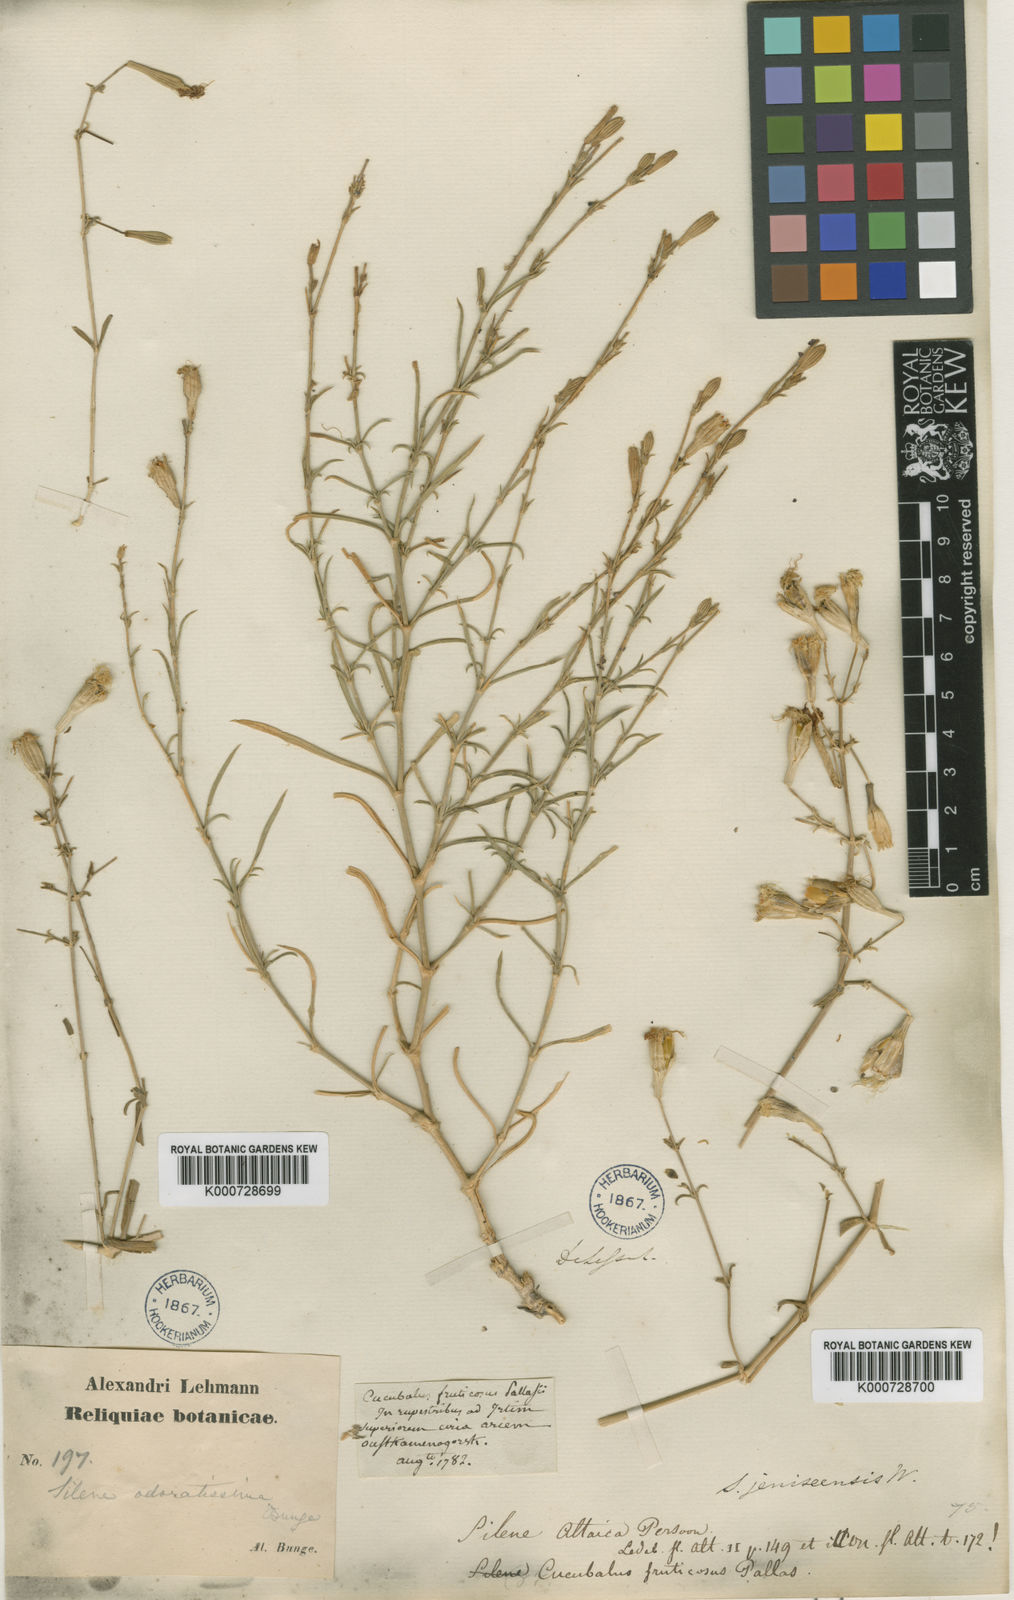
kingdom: Plantae
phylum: Tracheophyta
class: Magnoliopsida
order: Caryophyllales
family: Caryophyllaceae
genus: Silene
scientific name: Silene altaica
